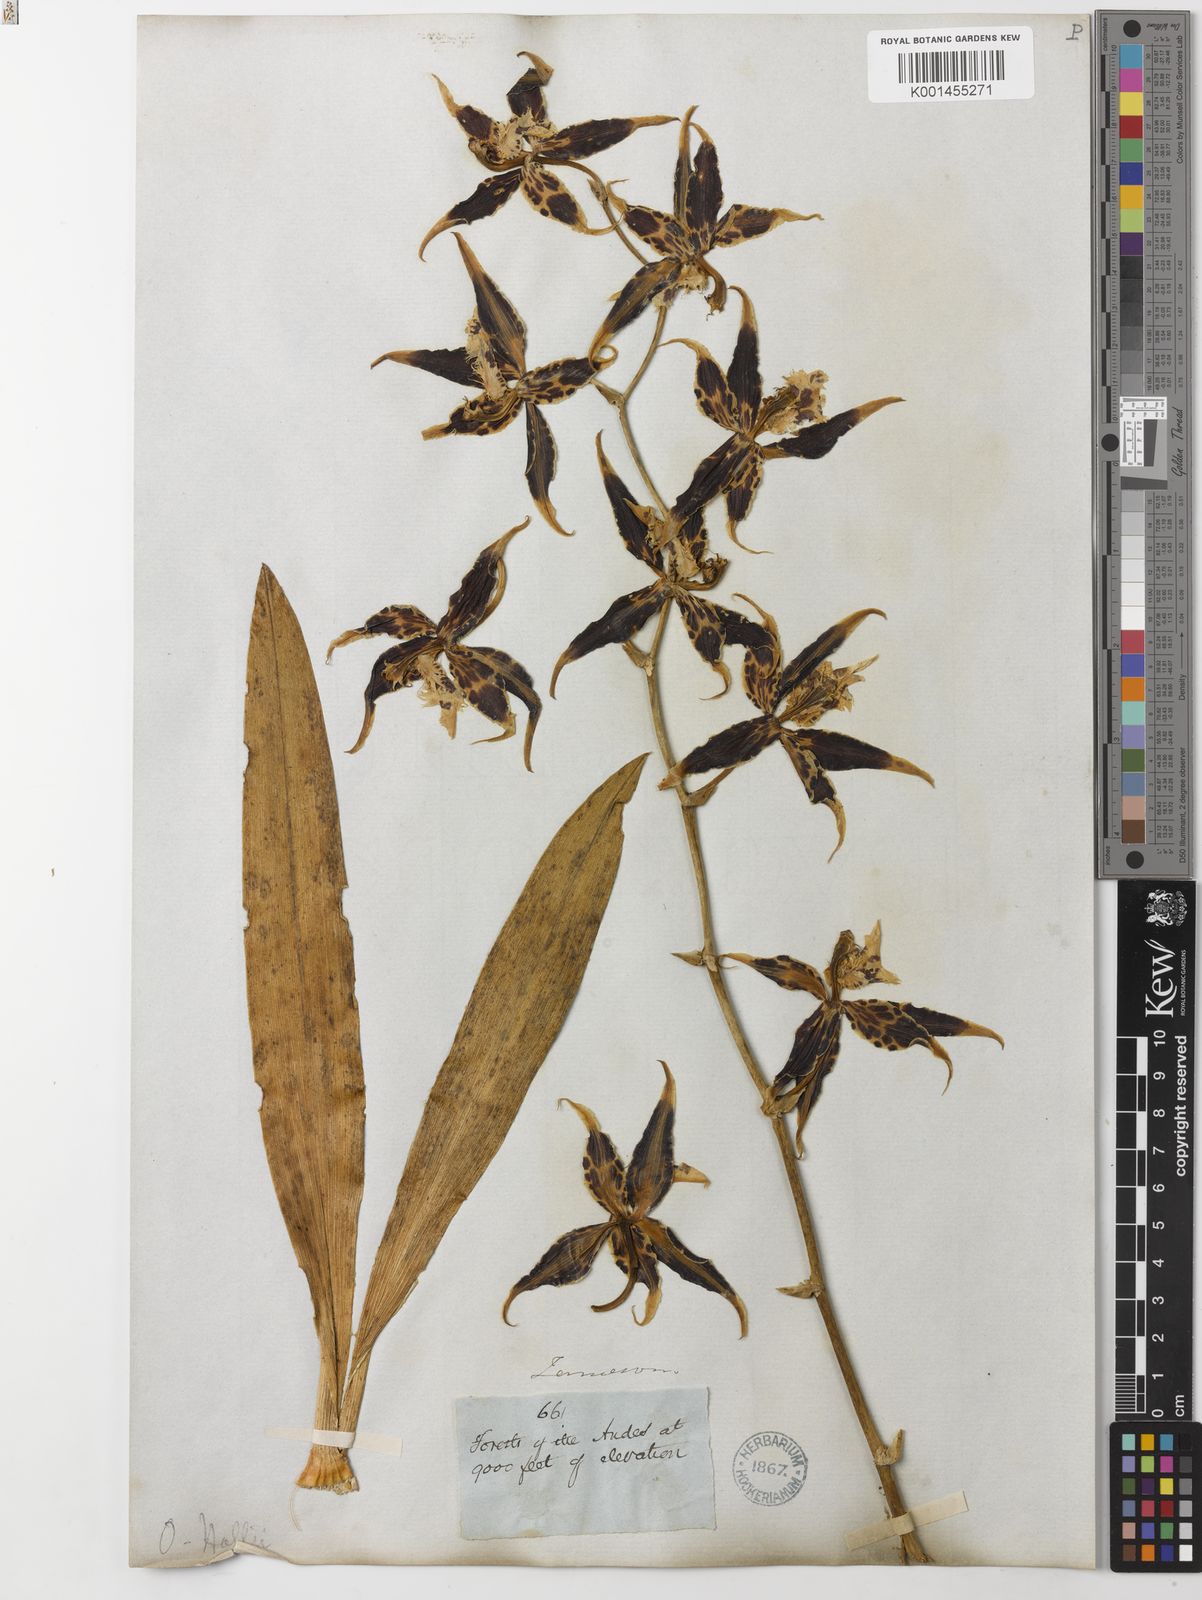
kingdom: Plantae
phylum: Tracheophyta
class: Liliopsida
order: Asparagales
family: Orchidaceae
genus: Oncidium
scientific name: Oncidium hallii
